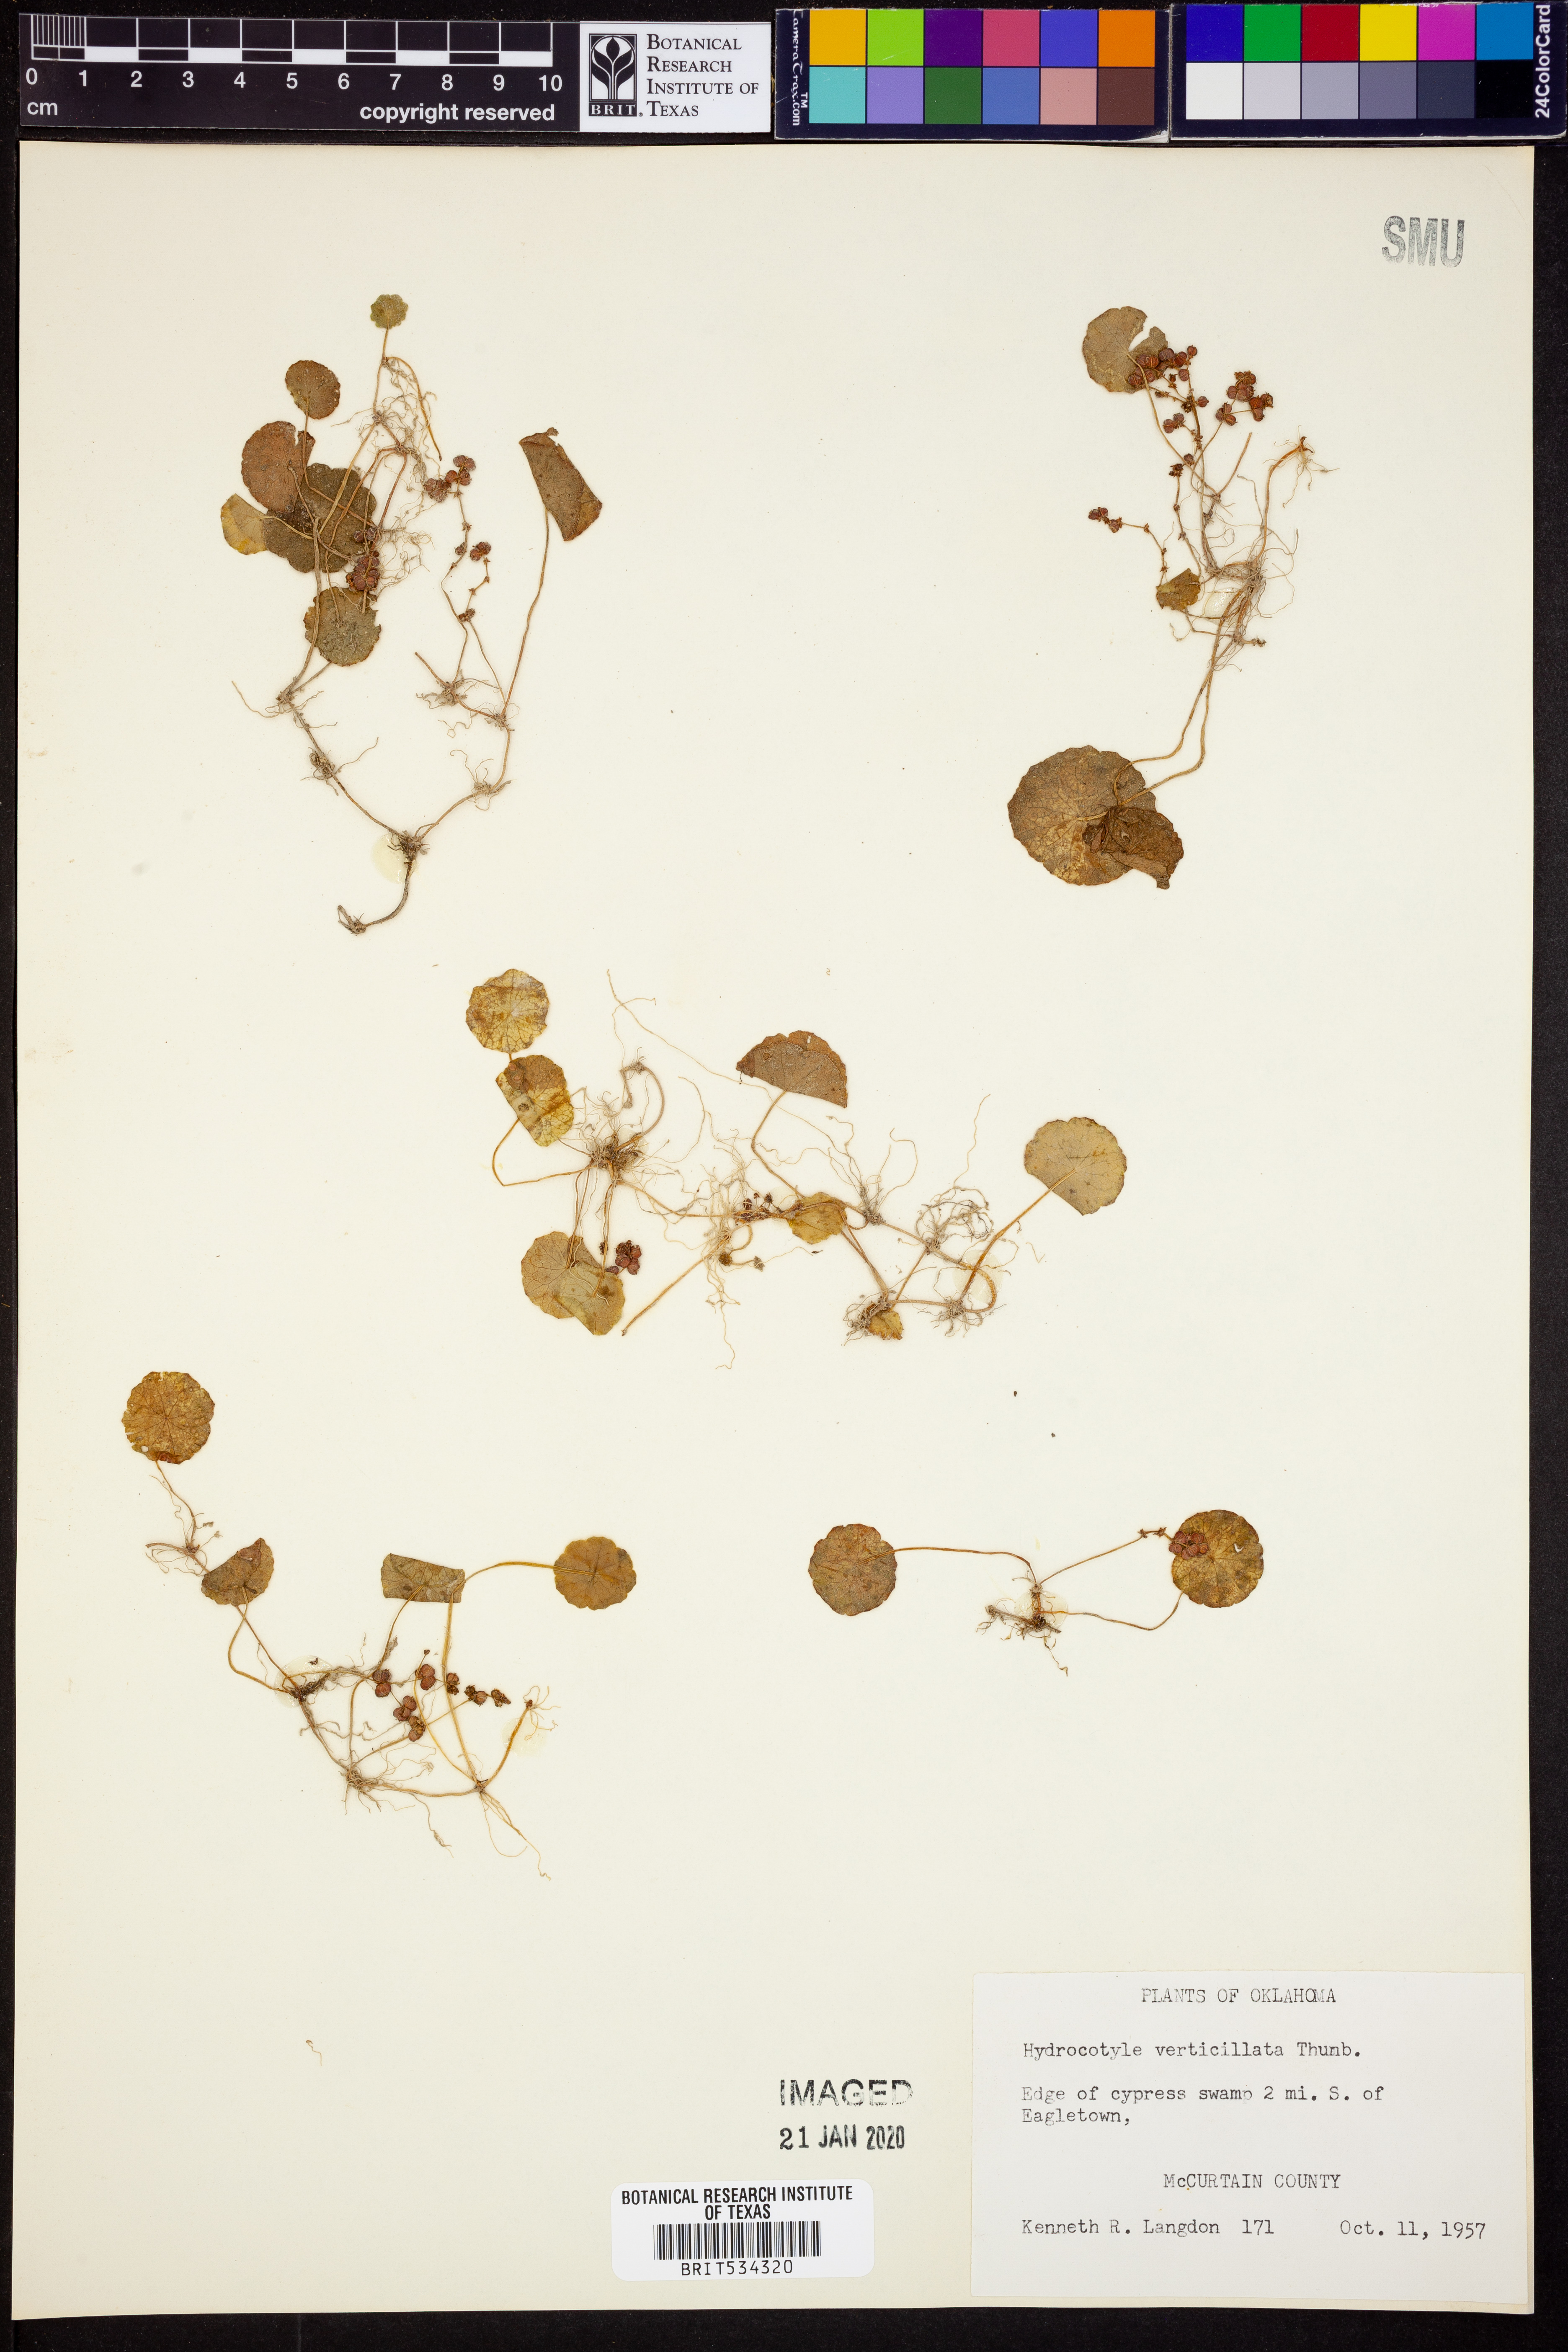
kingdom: Plantae
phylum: Tracheophyta
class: Magnoliopsida
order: Apiales
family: Araliaceae
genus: Hydrocotyle
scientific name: Hydrocotyle verticillata
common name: Whorled marshpennywort
